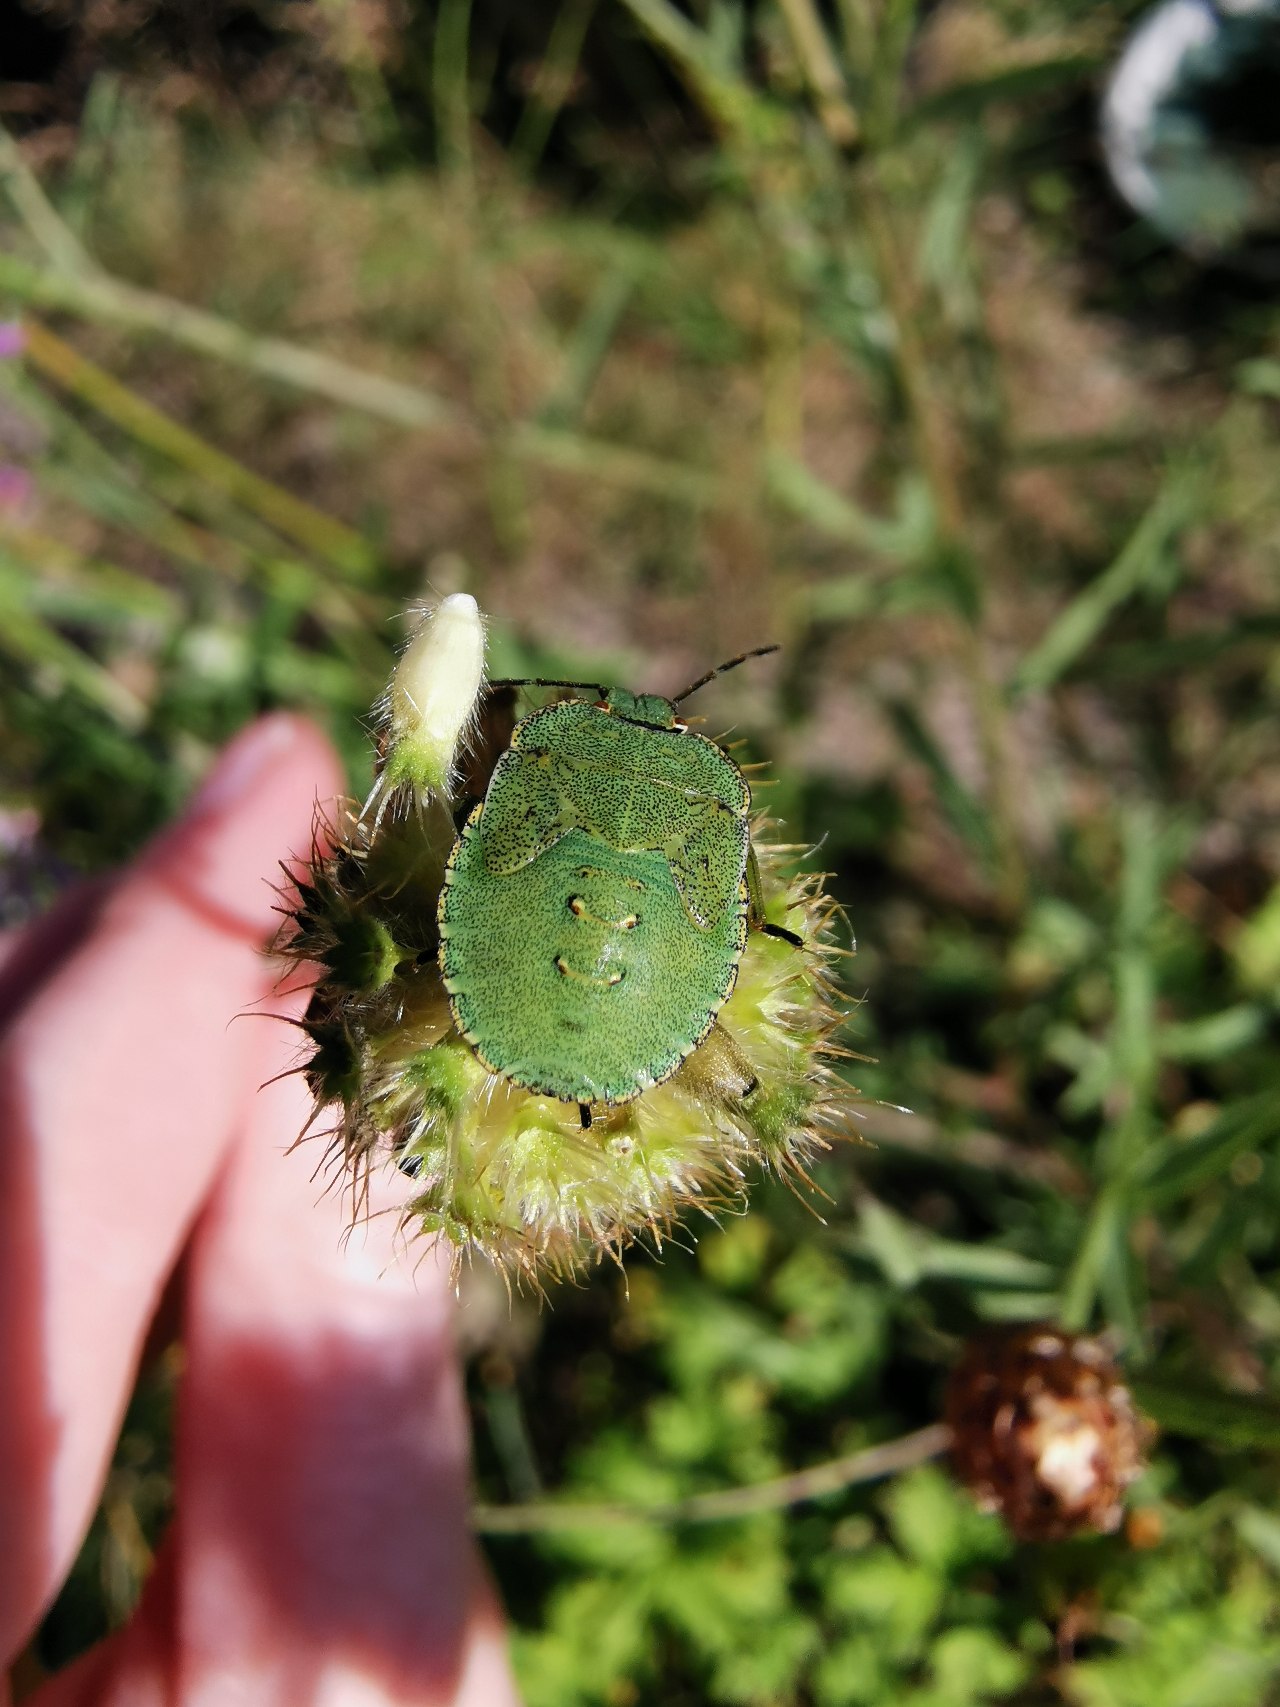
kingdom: Animalia
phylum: Arthropoda
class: Insecta
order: Hemiptera
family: Pentatomidae
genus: Palomena
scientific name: Palomena prasina
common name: Grøn bredtæge
